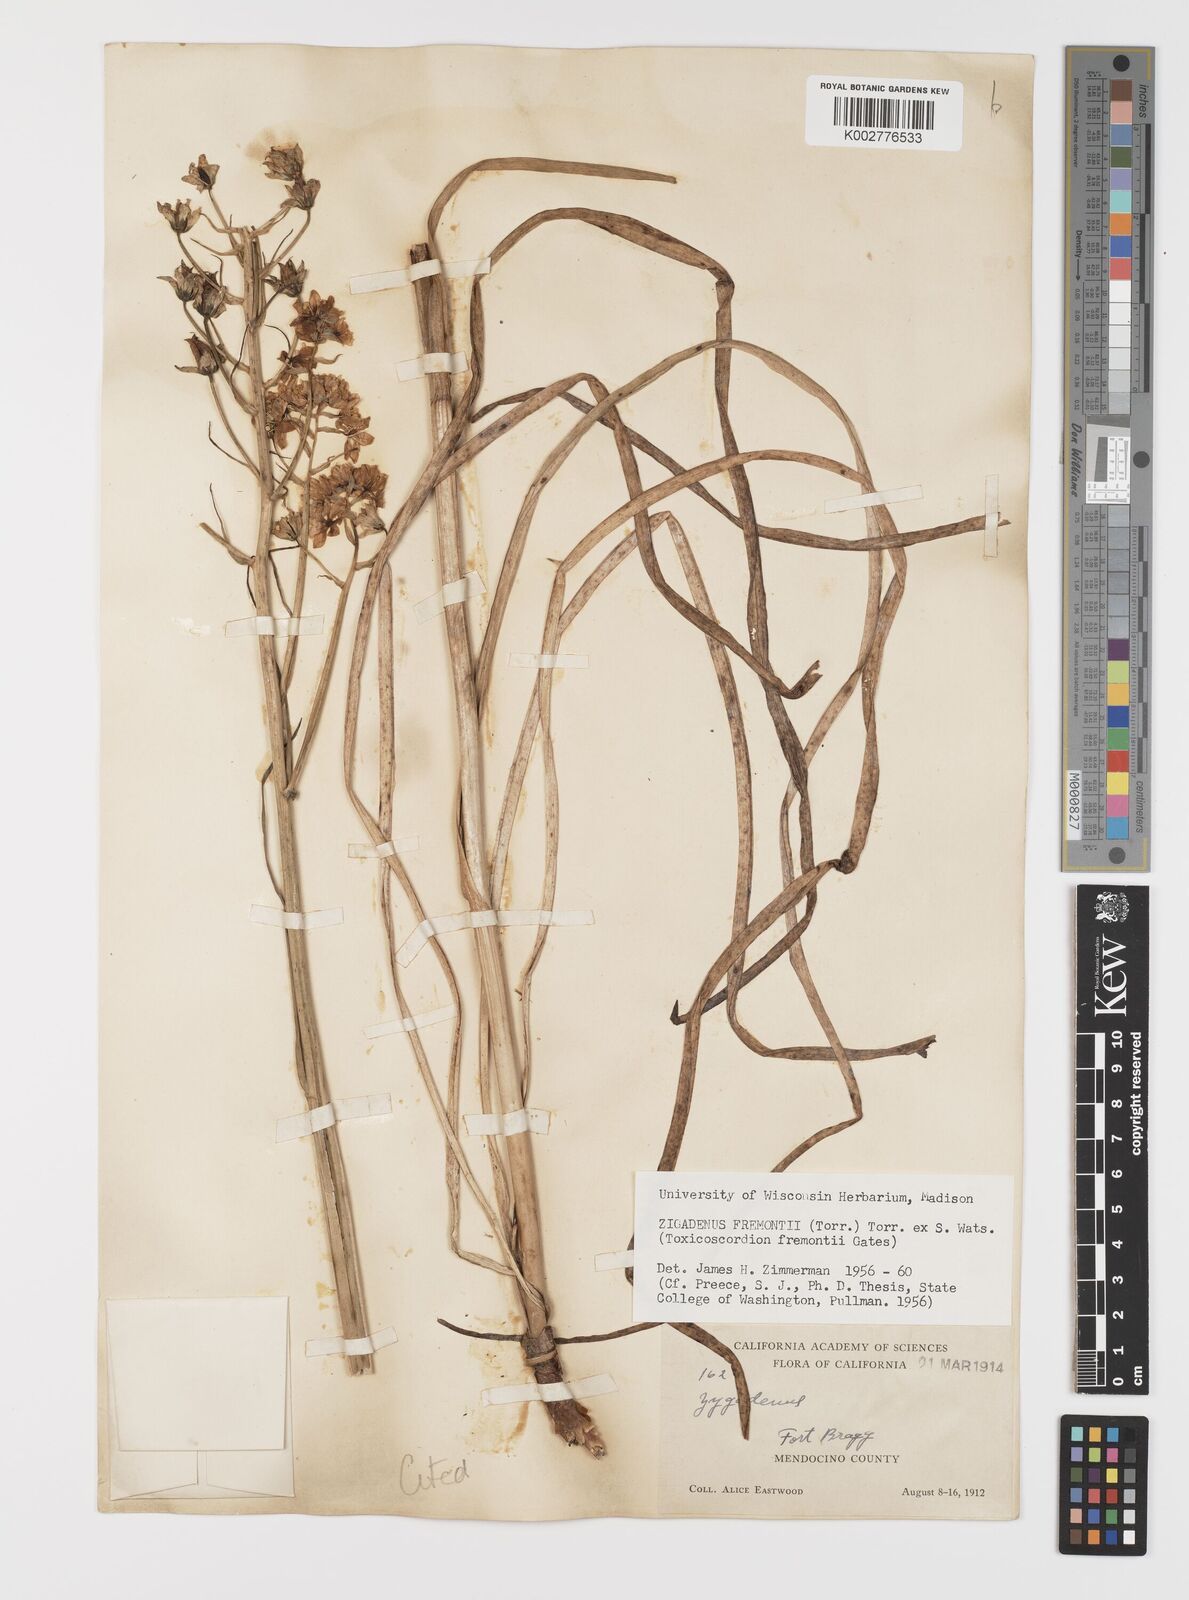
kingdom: Plantae
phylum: Tracheophyta
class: Liliopsida
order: Liliales
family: Melanthiaceae
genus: Toxicoscordion
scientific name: Toxicoscordion fremontii
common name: Fremont's death camas
